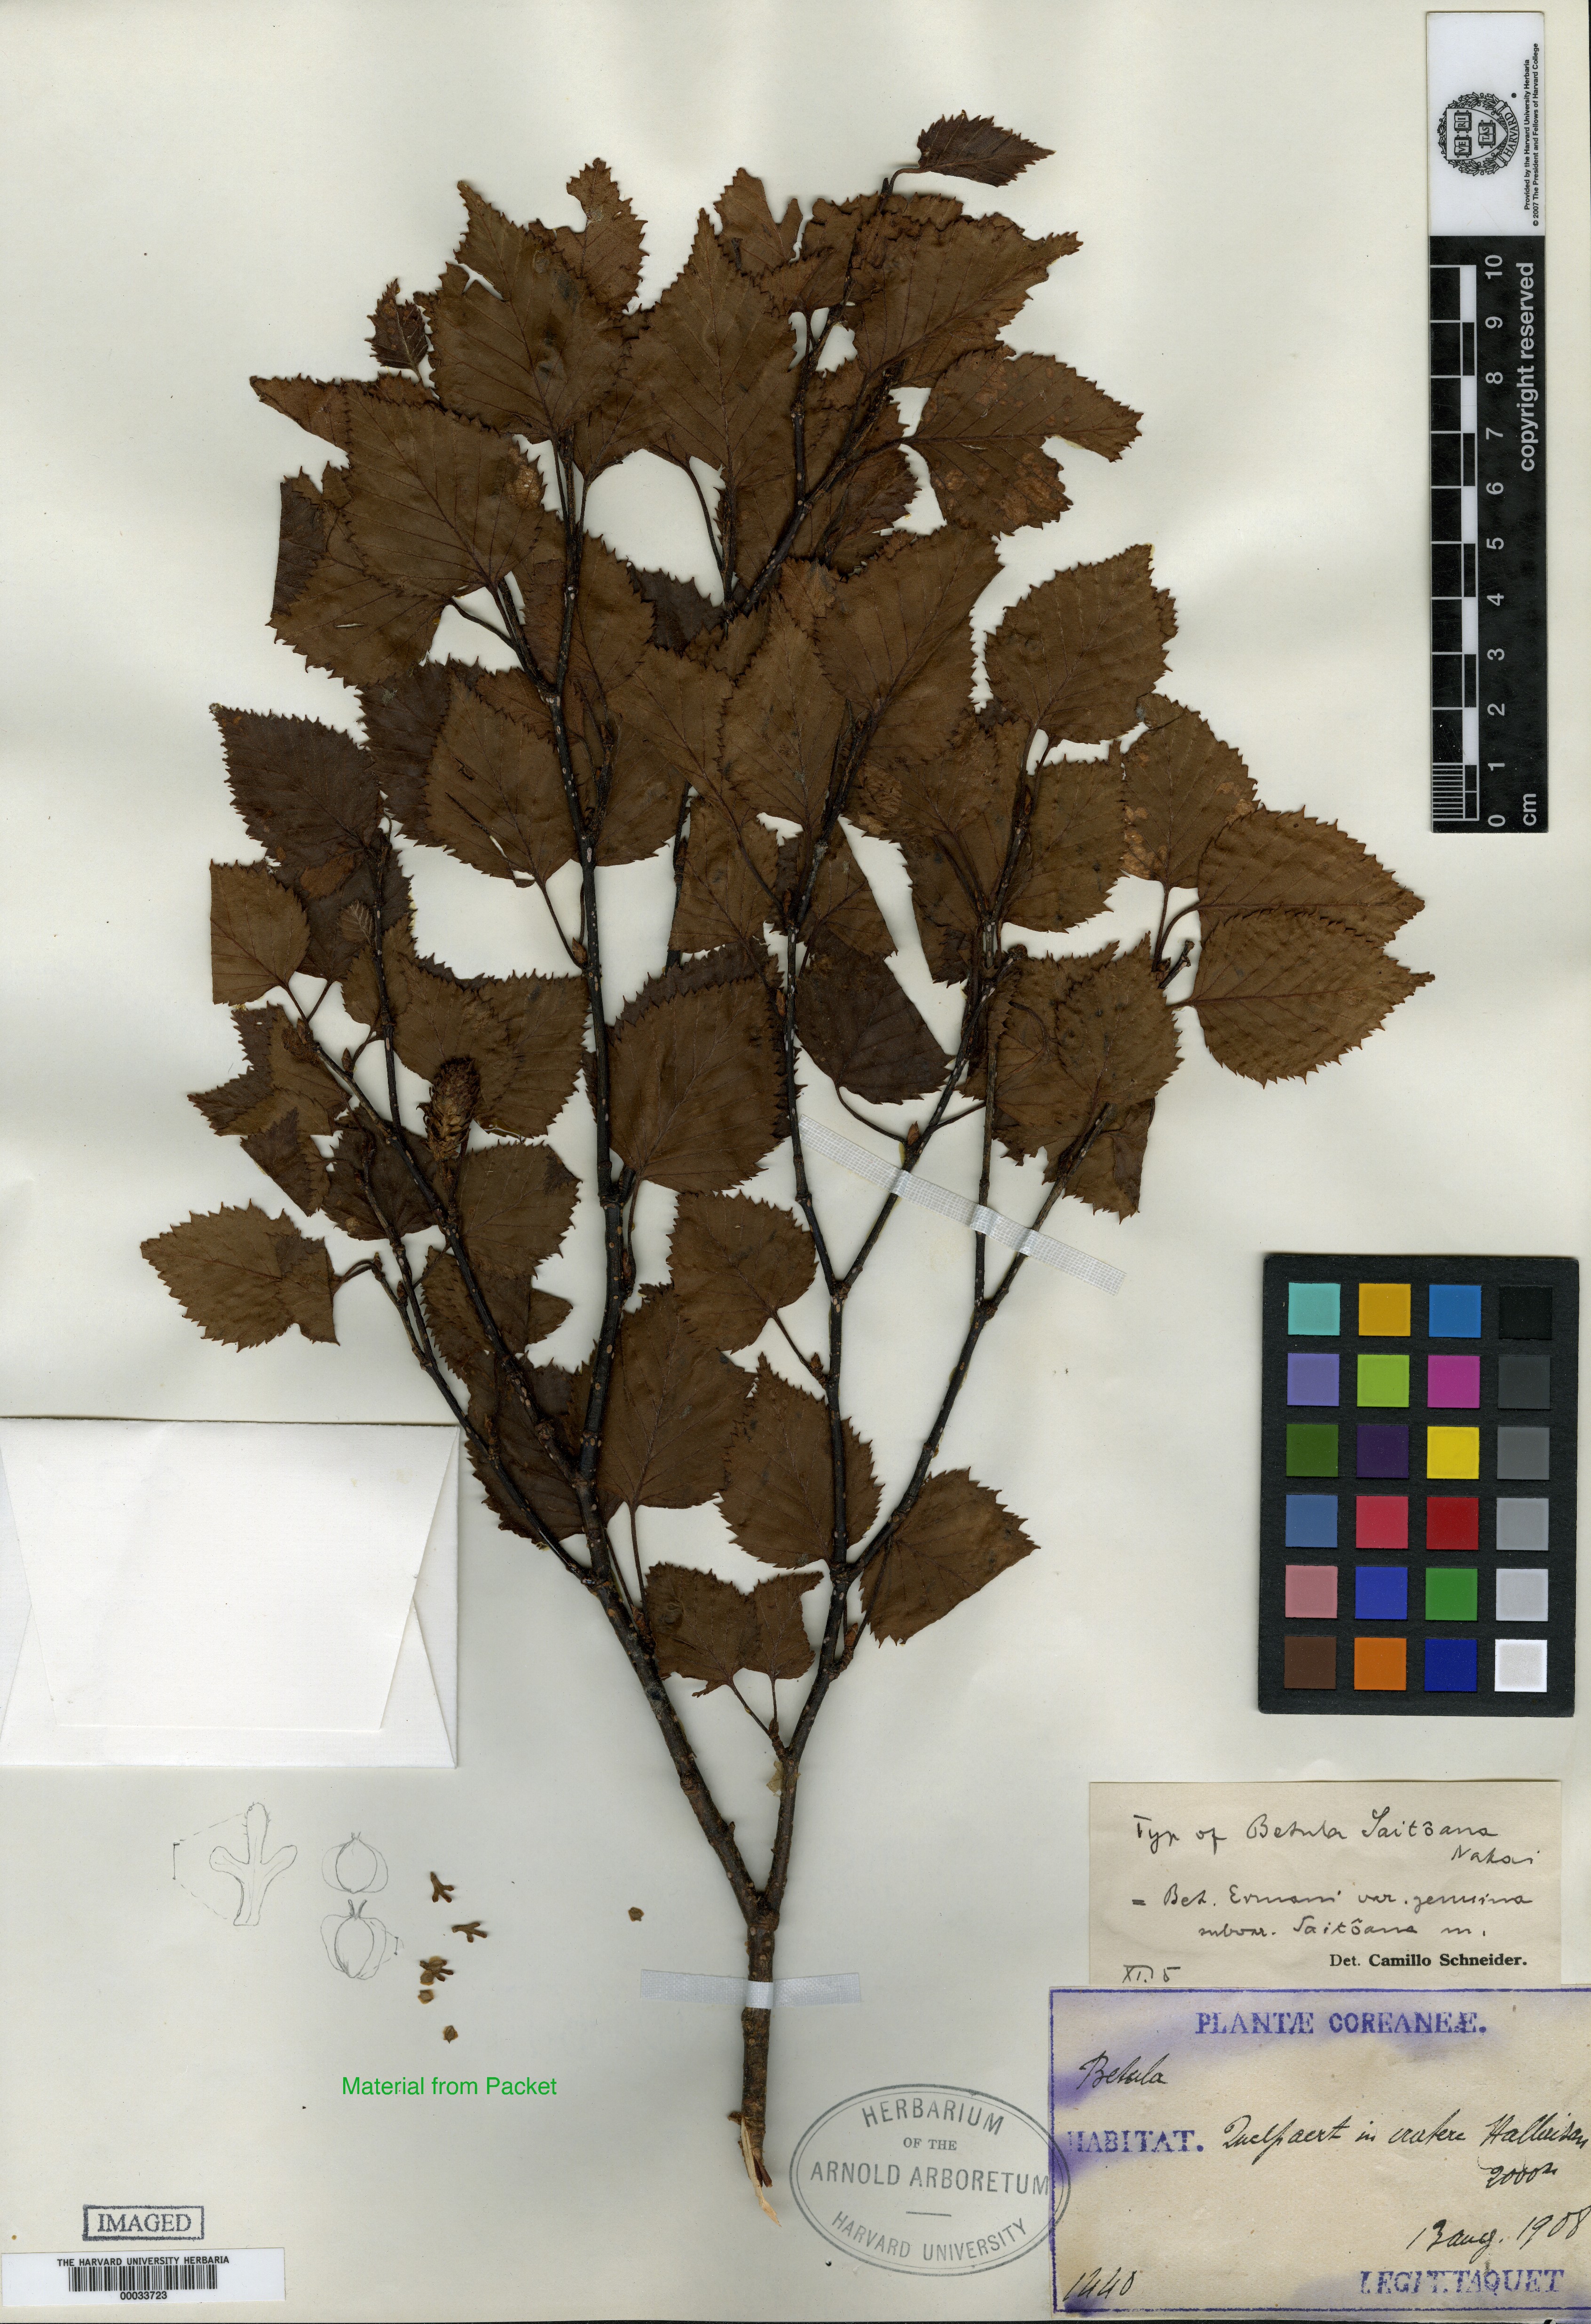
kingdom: Plantae
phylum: Tracheophyta
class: Magnoliopsida
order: Fagales
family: Betulaceae
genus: Betula
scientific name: Betula ermanii
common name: Erman's birch
